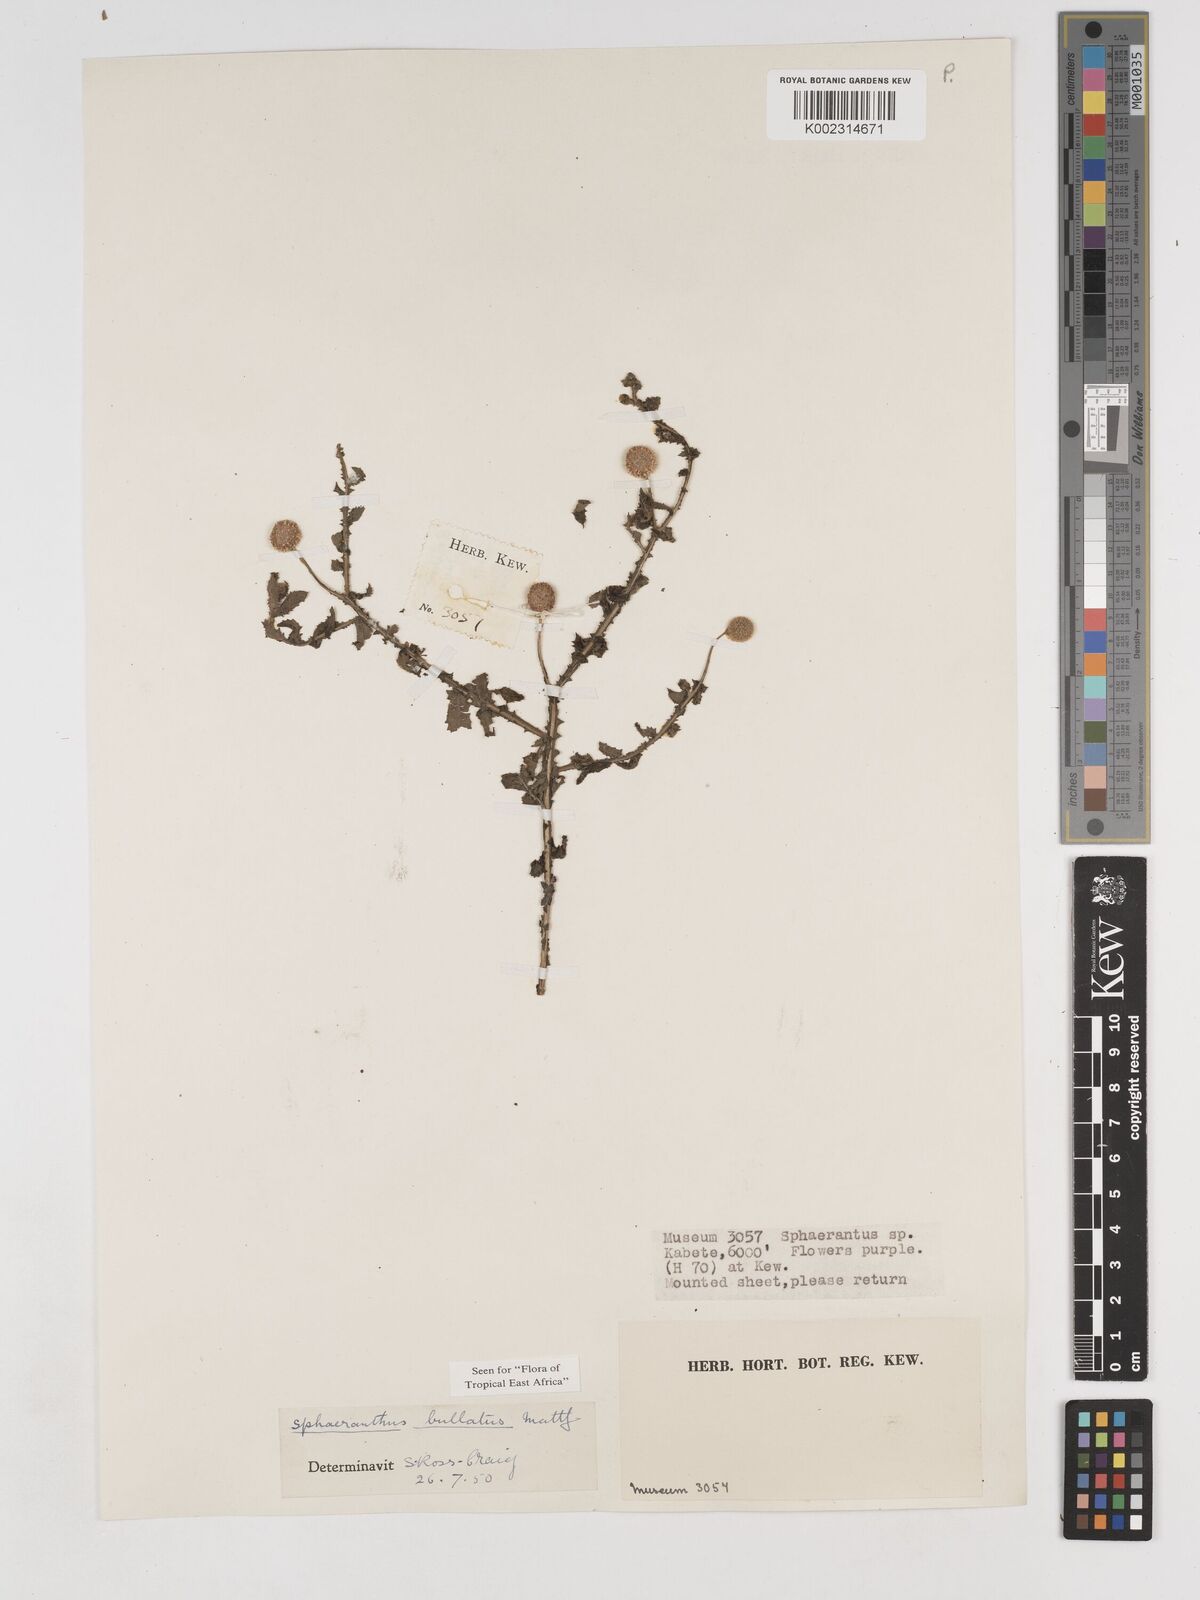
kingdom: Plantae
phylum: Tracheophyta
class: Magnoliopsida
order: Asterales
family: Asteraceae
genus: Sphaeranthus
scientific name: Sphaeranthus bullatus
